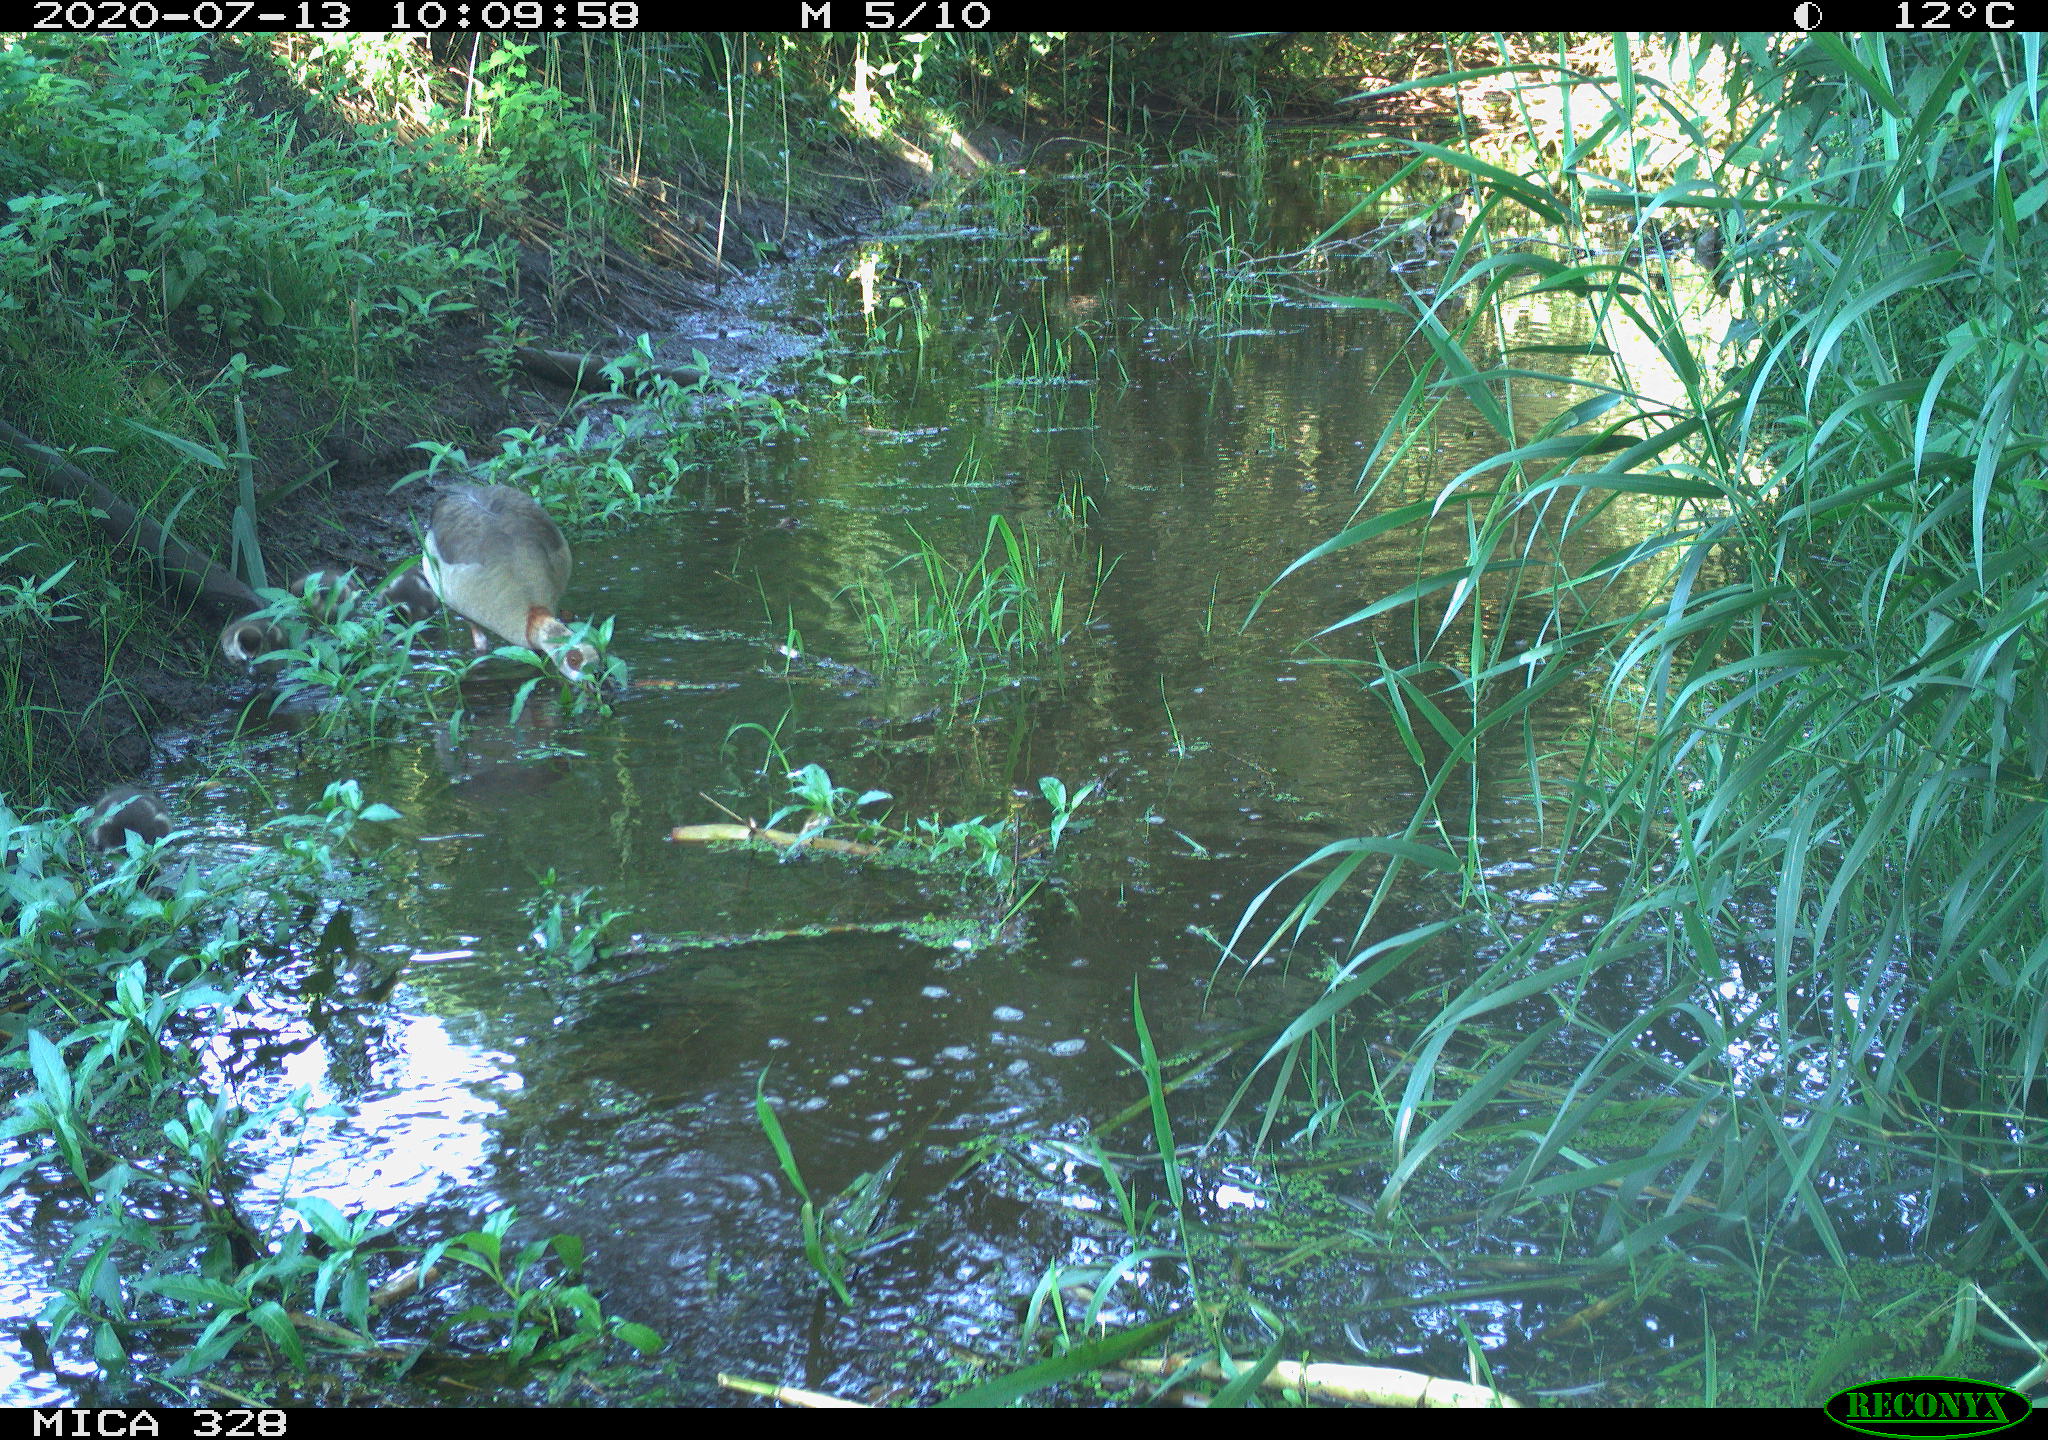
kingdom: Animalia
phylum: Chordata
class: Aves
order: Anseriformes
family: Anatidae
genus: Alopochen
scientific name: Alopochen aegyptiaca
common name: Egyptian goose
